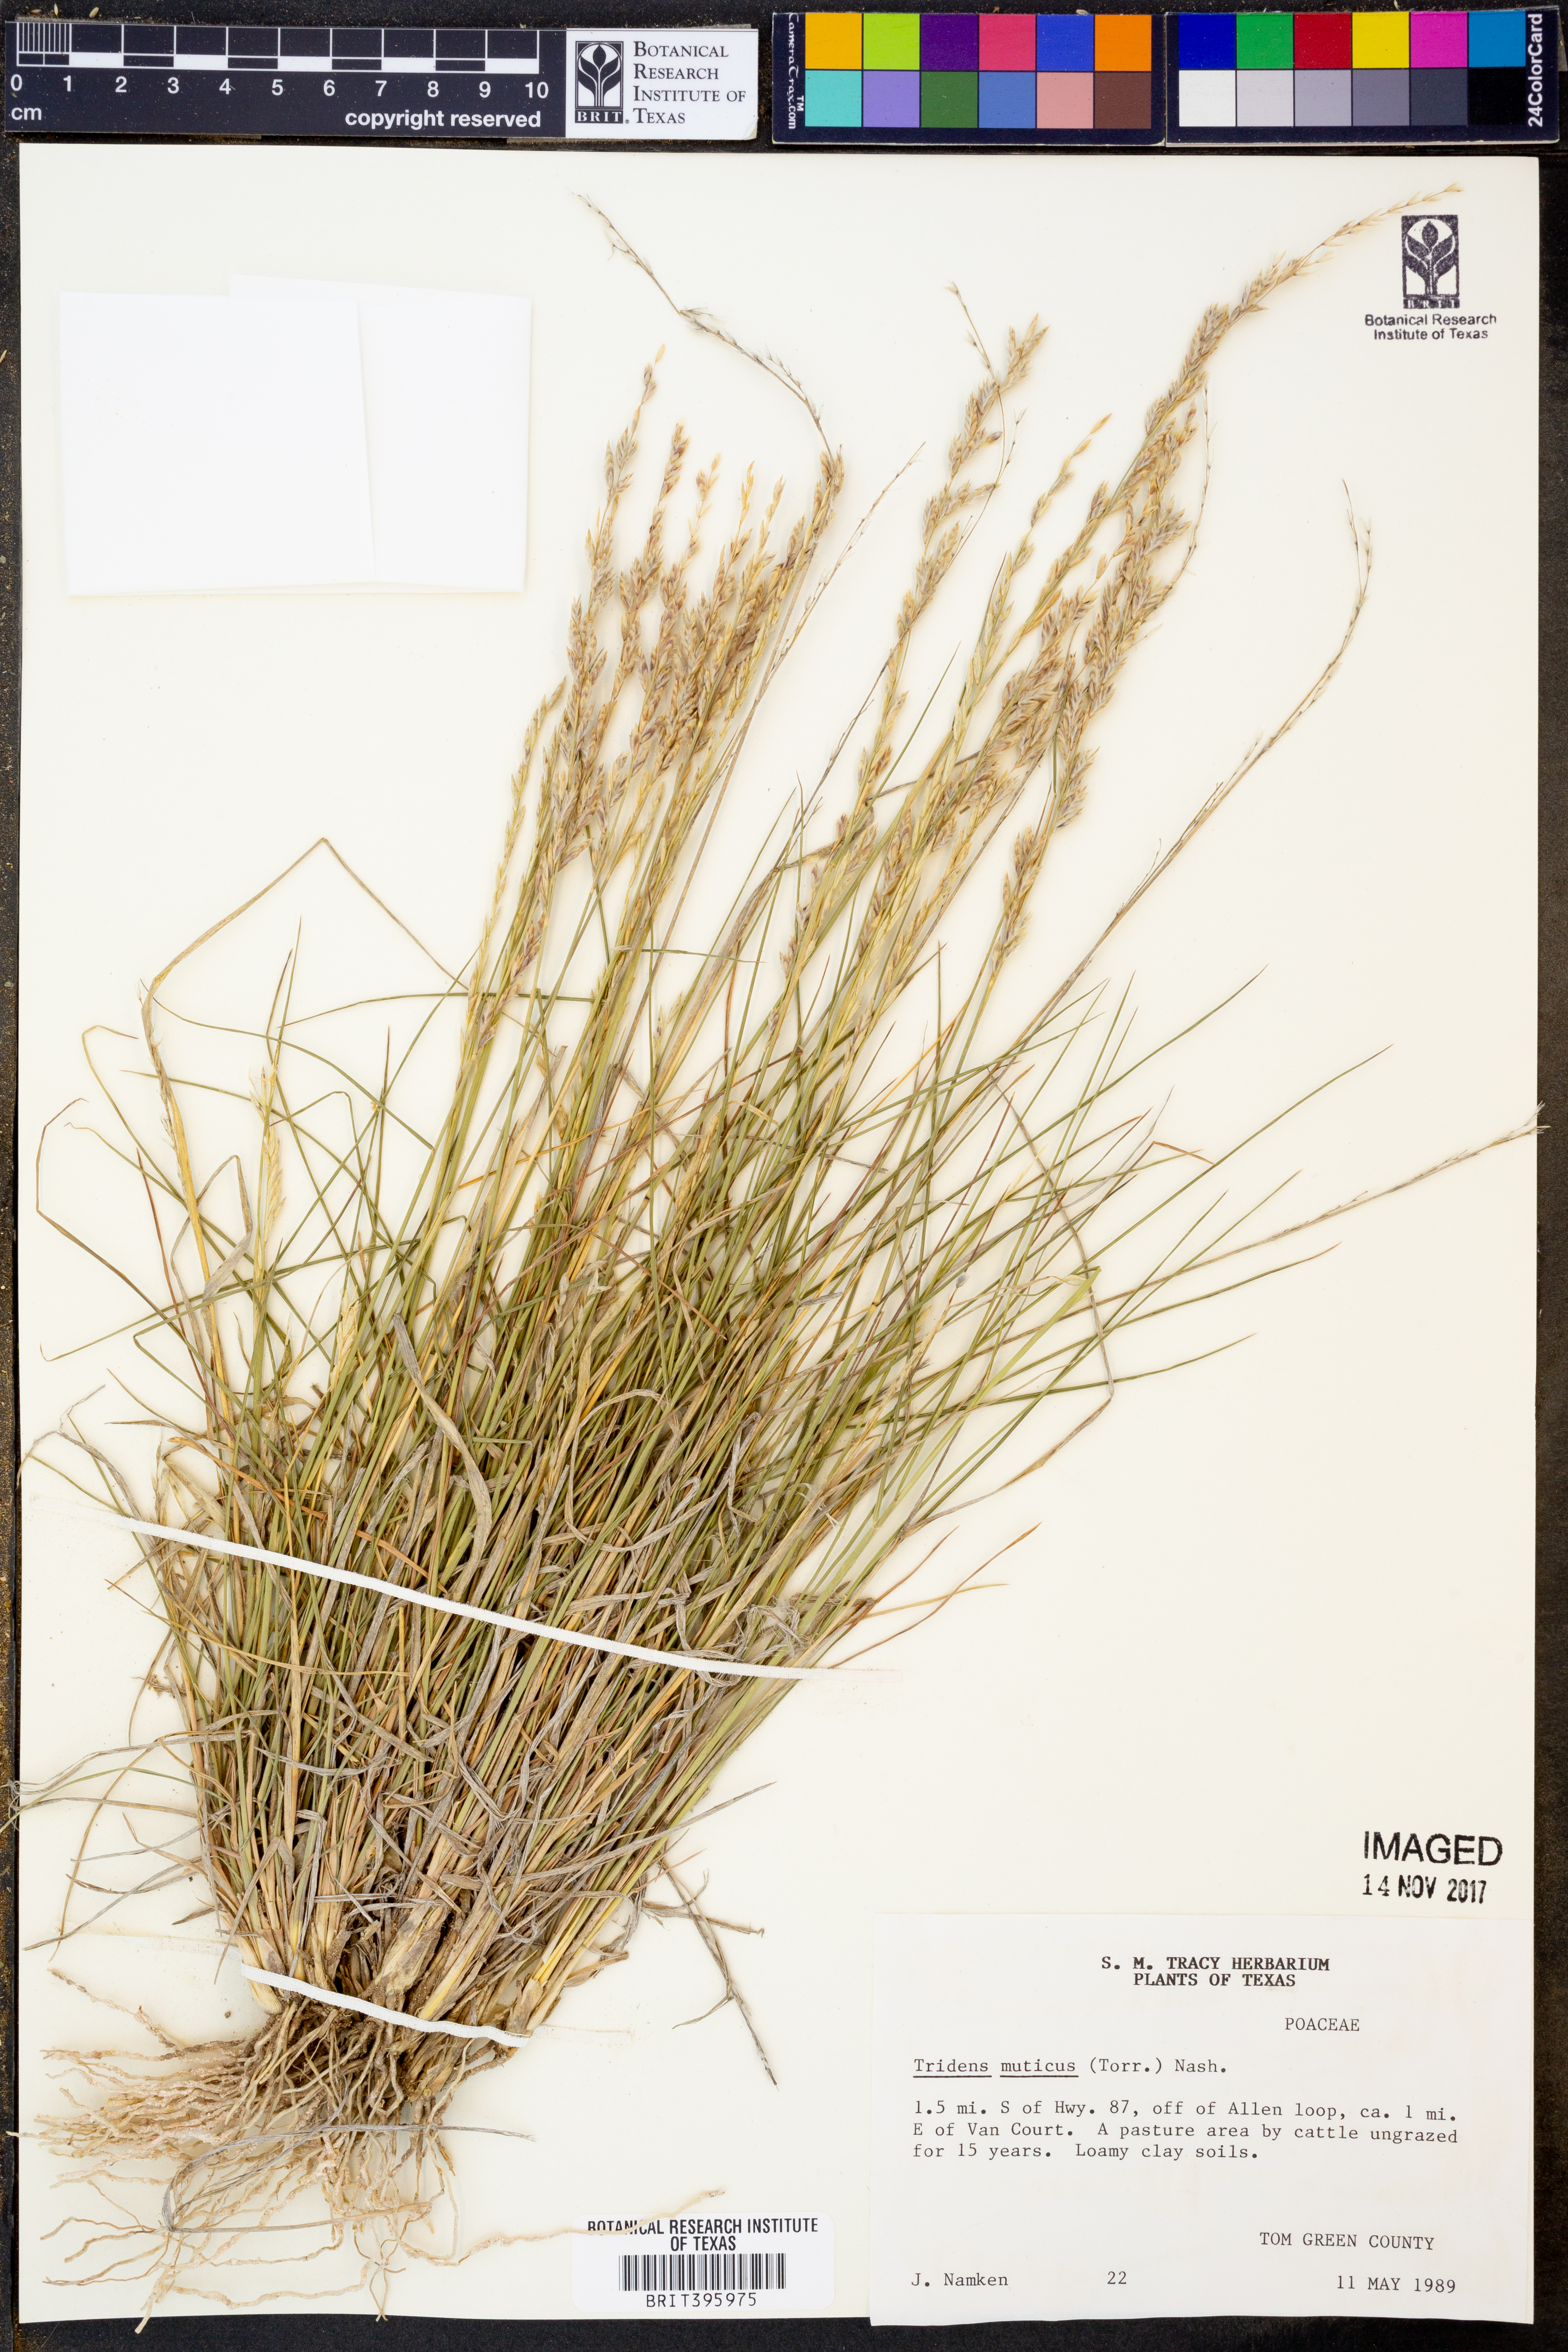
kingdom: Plantae
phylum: Tracheophyta
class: Liliopsida
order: Poales
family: Poaceae
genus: Tridentopsis
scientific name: Tridentopsis mutica
